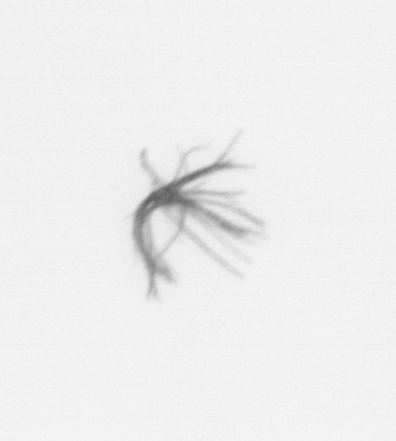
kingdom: Bacteria
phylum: Cyanobacteria
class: Cyanobacteriia
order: Cyanobacteriales
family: Microcoleaceae
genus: Trichodesmium
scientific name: Trichodesmium
